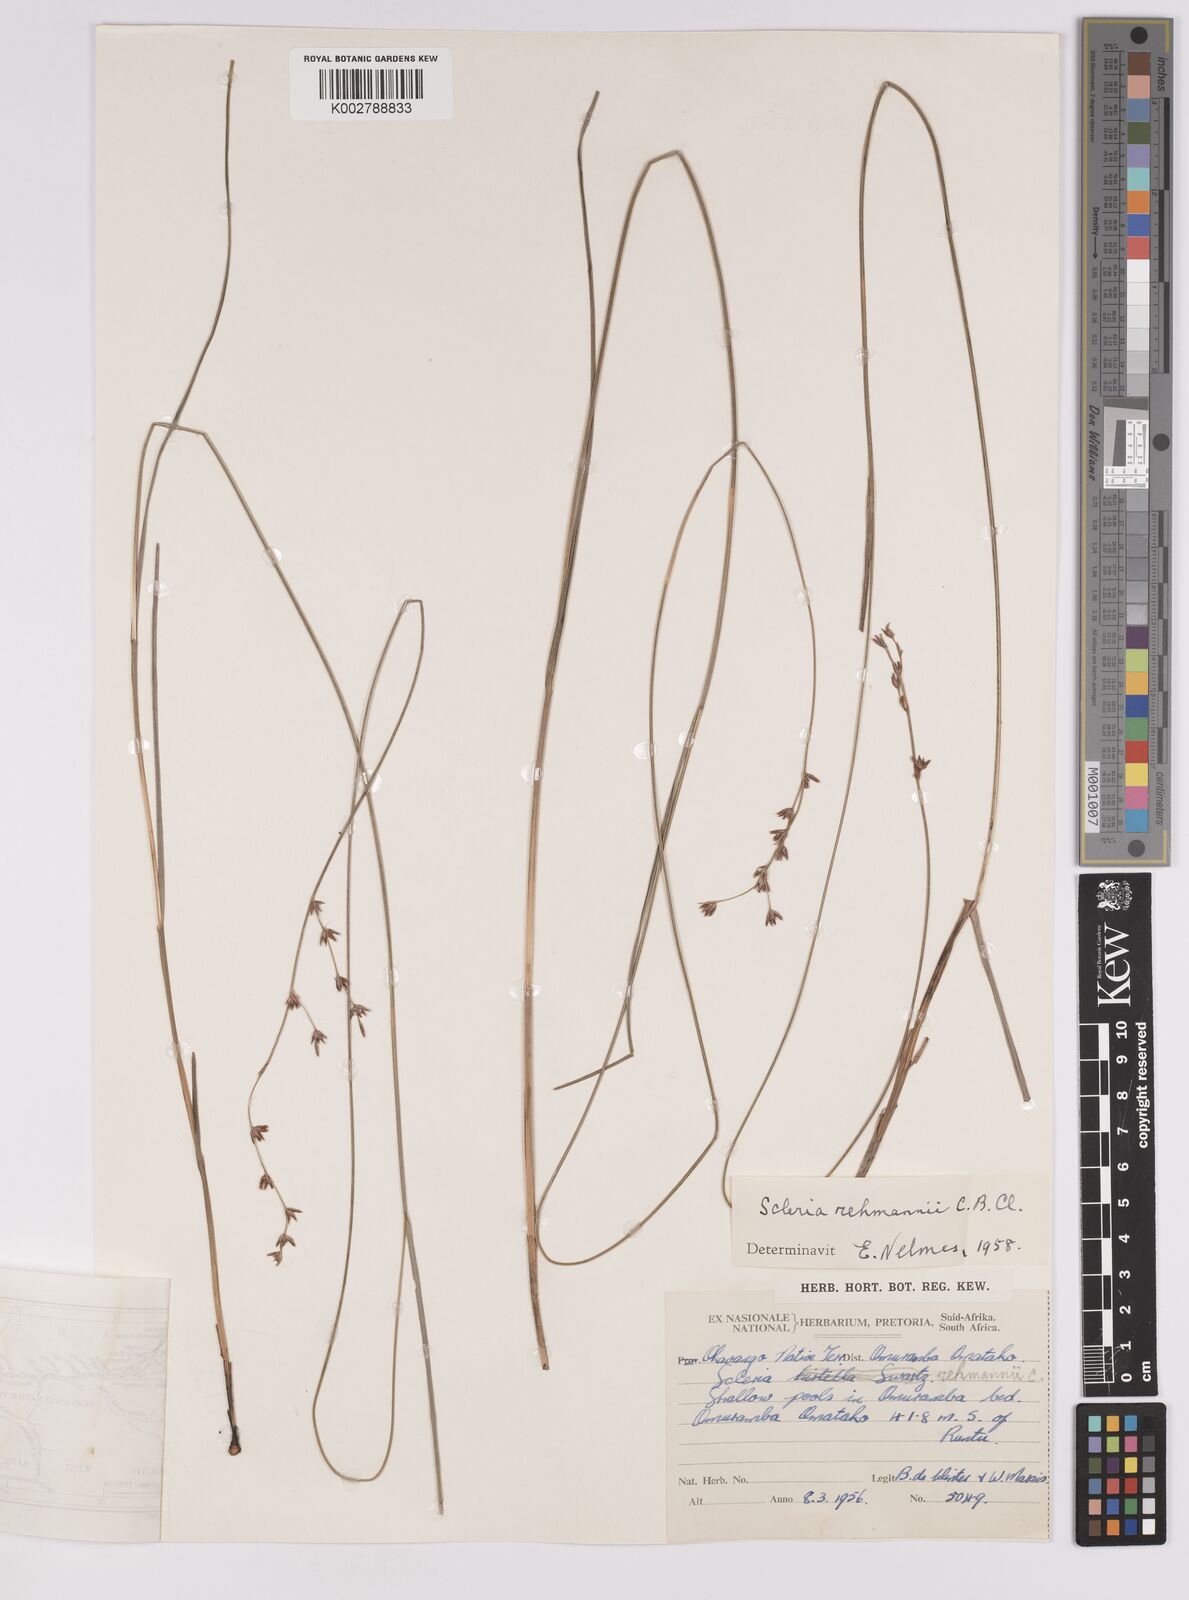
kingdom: Plantae
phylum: Tracheophyta
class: Liliopsida
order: Poales
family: Cyperaceae
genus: Scleria
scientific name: Scleria rehmannii
